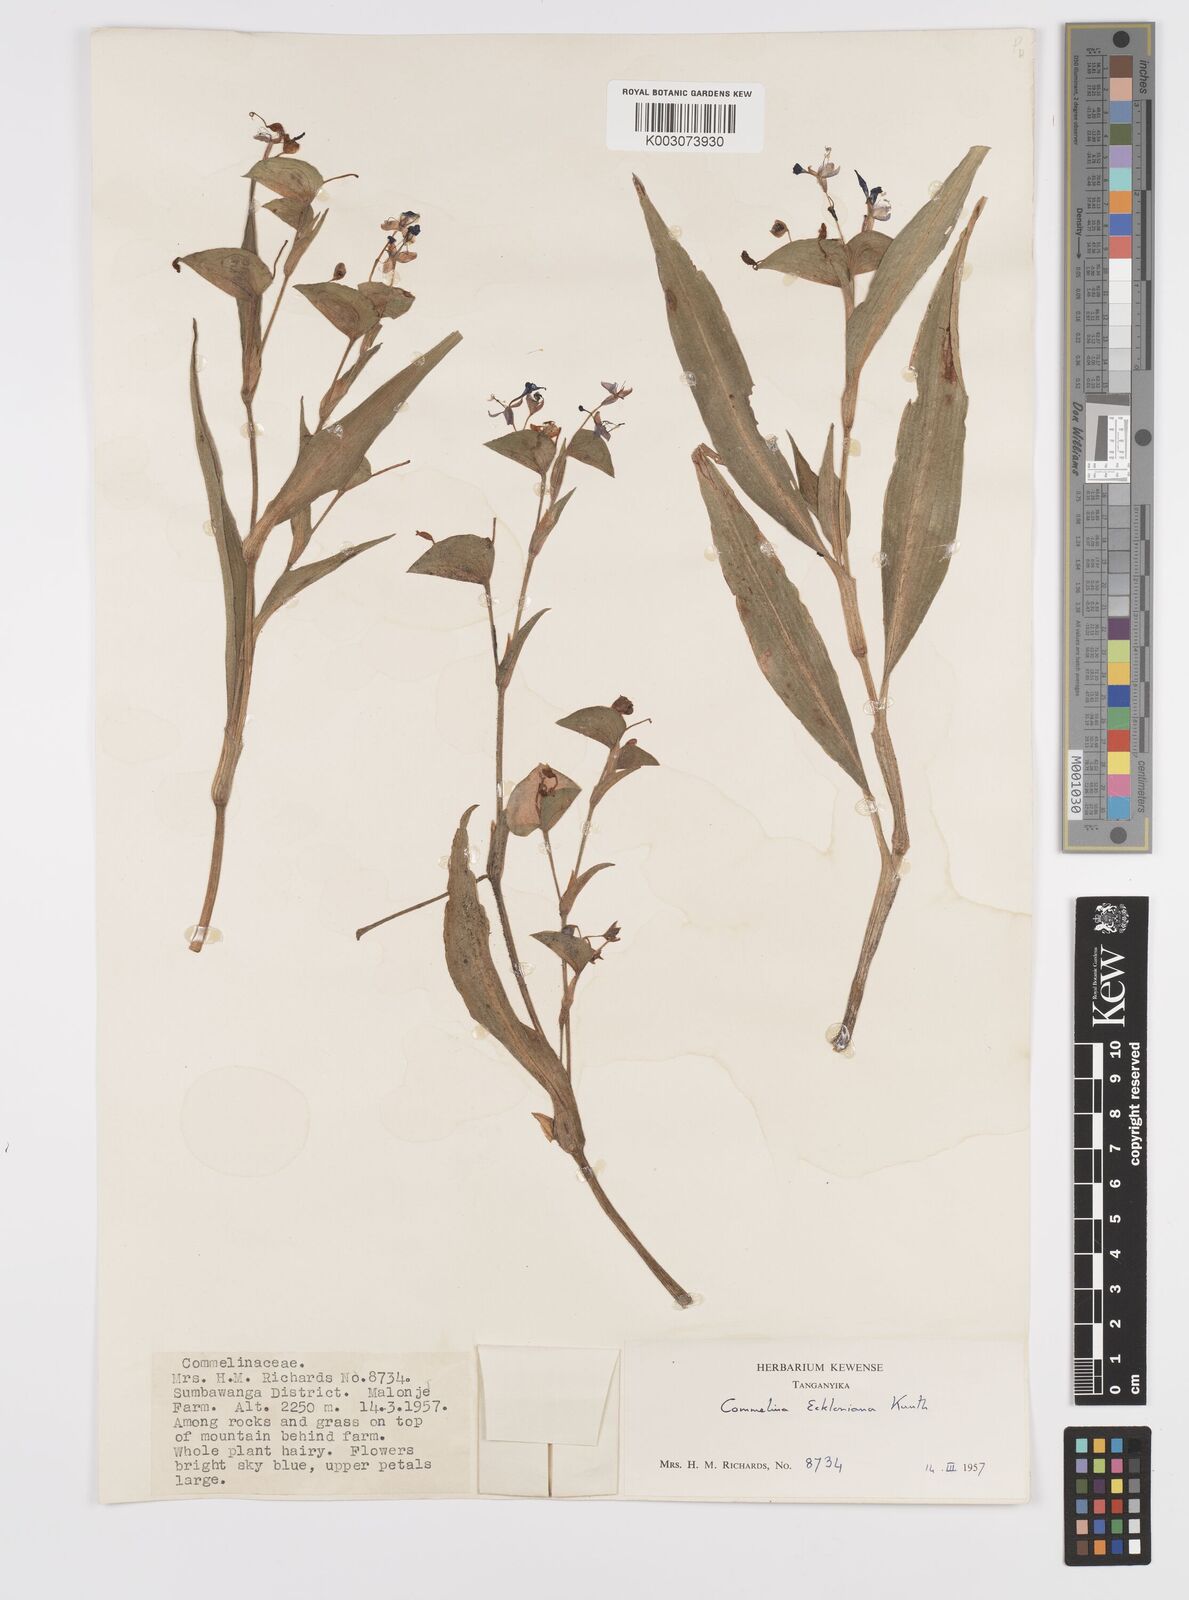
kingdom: Plantae
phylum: Tracheophyta
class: Liliopsida
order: Commelinales
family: Commelinaceae
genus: Commelina
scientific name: Commelina eckloniana
